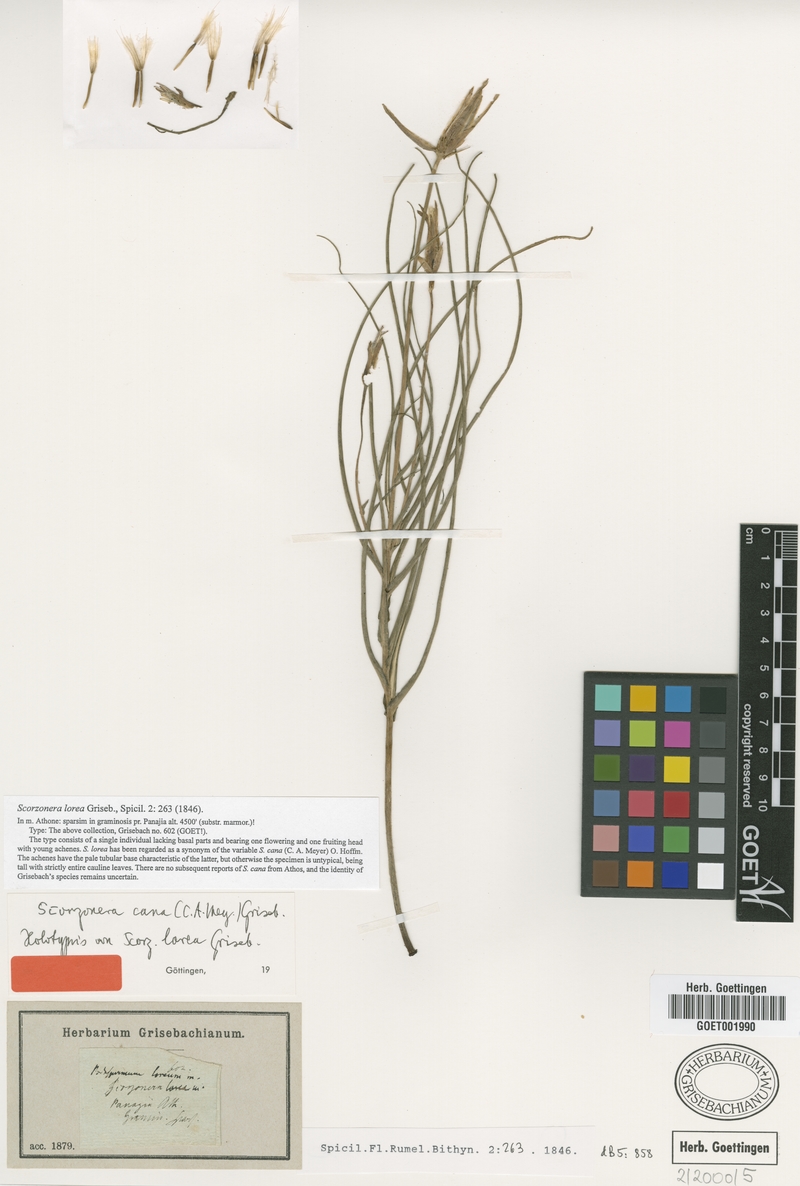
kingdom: Plantae
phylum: Tracheophyta
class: Magnoliopsida
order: Asterales
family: Asteraceae
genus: Scorzonera
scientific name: Scorzonera cana
